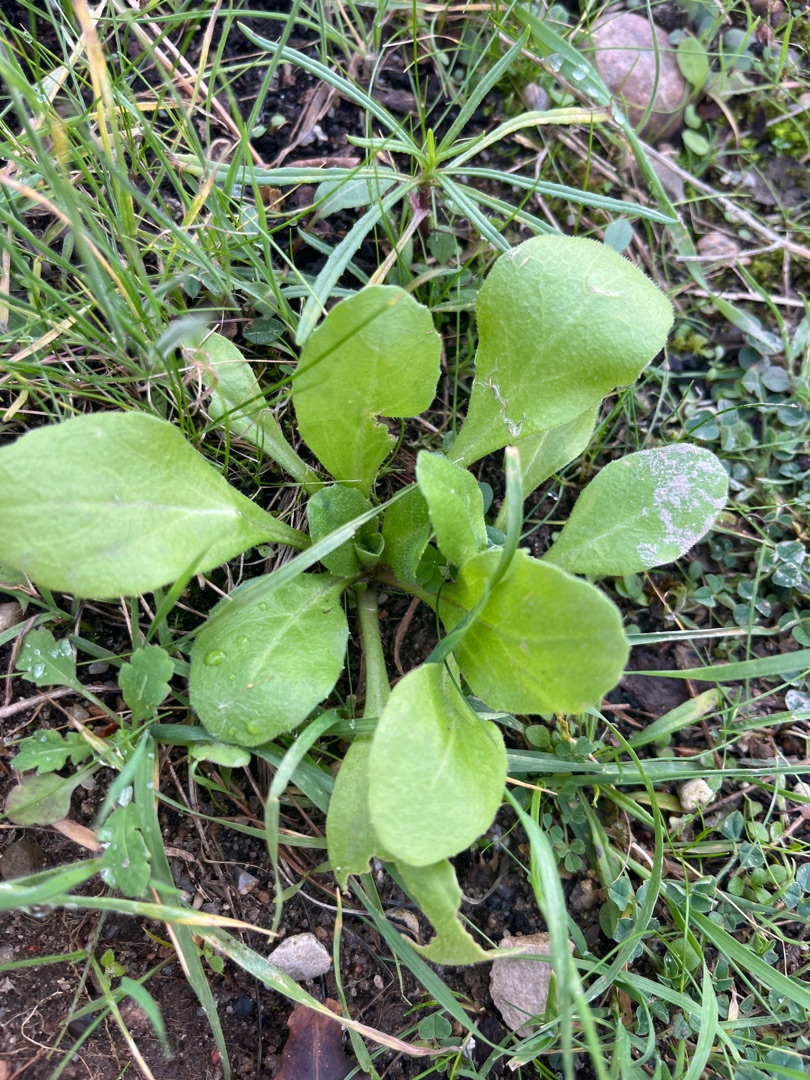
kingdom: Plantae
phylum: Tracheophyta
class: Magnoliopsida
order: Asterales
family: Asteraceae
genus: Bellis
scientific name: Bellis perennis
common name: Tusindfryd
